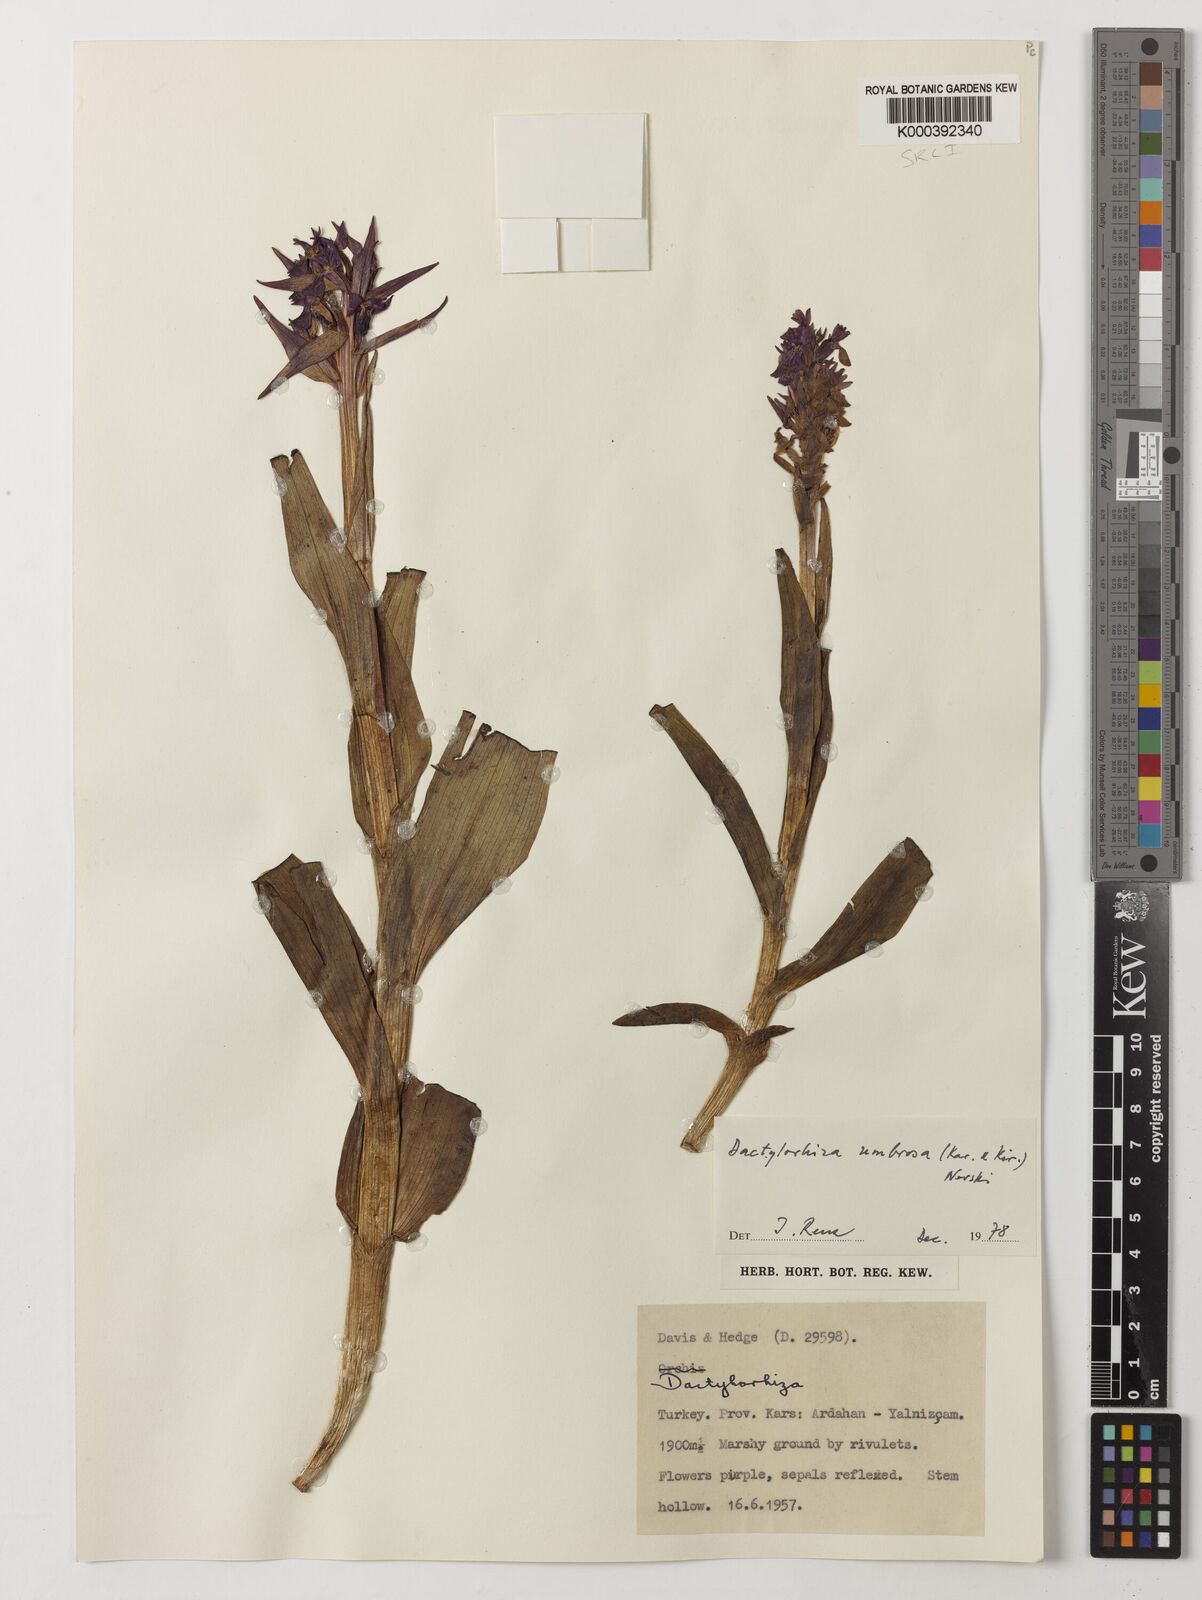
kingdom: Plantae
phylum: Tracheophyta
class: Liliopsida
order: Asparagales
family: Orchidaceae
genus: Dactylorhiza
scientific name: Dactylorhiza
